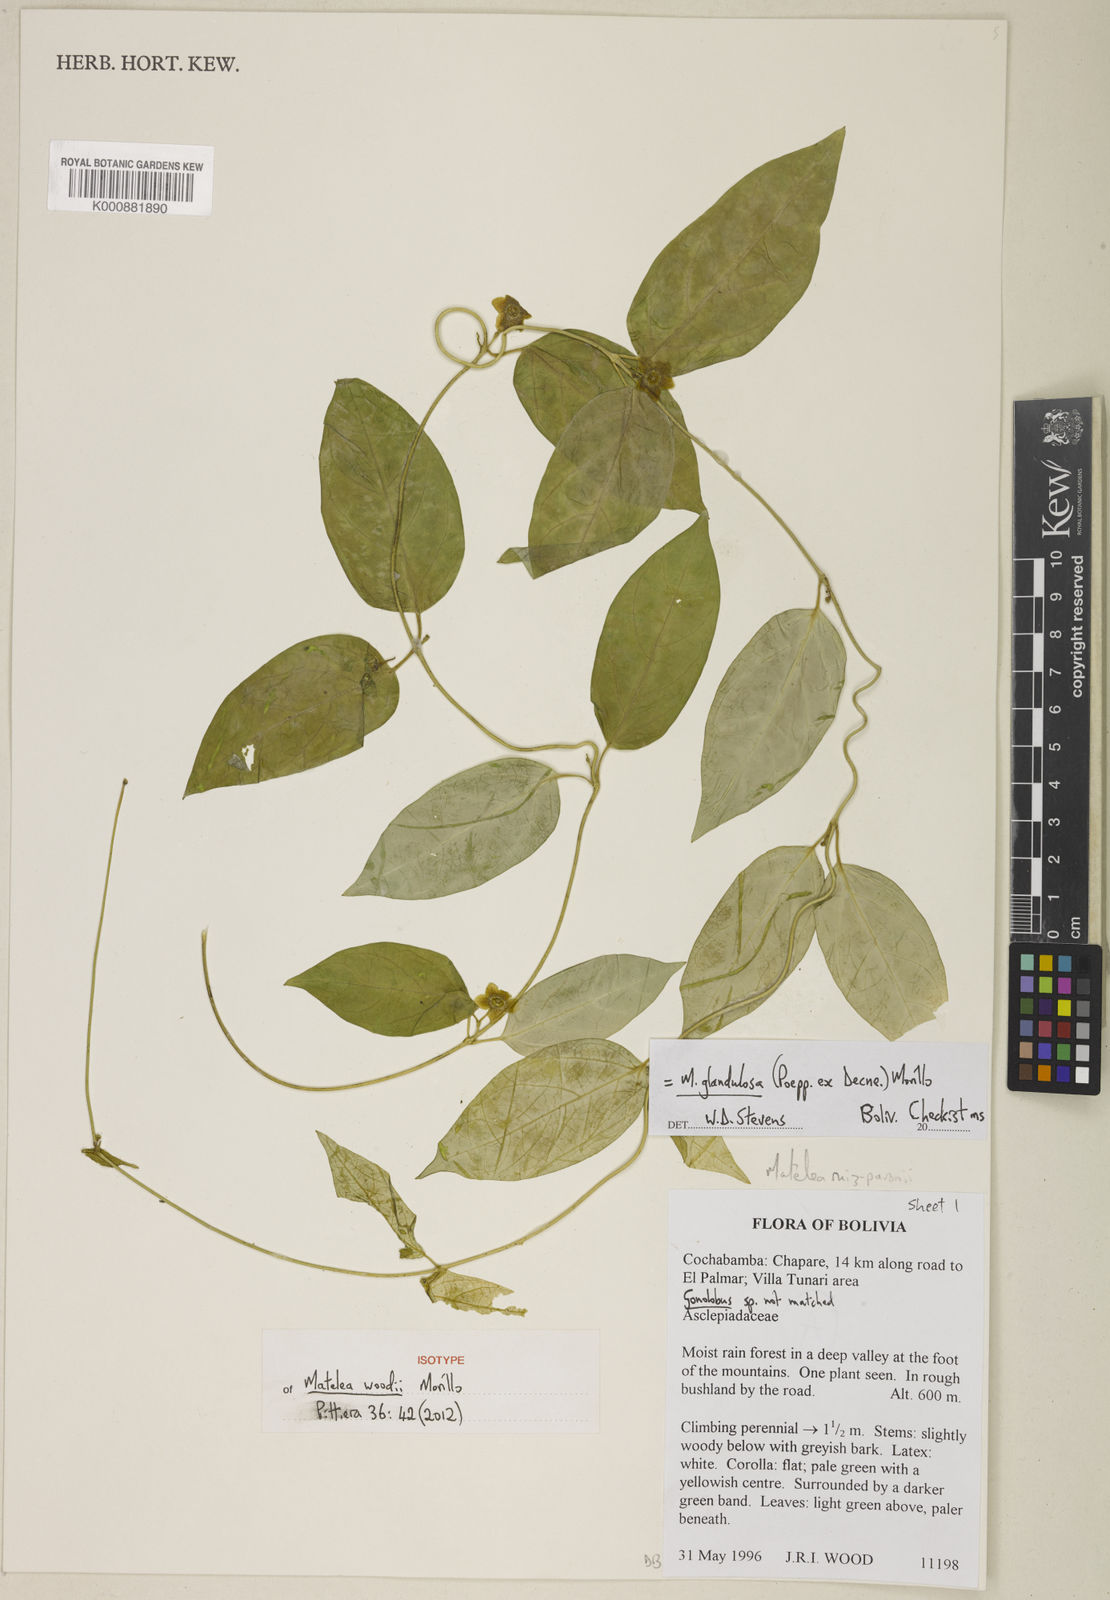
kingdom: Plantae
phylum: Tracheophyta
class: Magnoliopsida
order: Gentianales
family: Apocynaceae
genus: Matelea
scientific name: Matelea glandulosa
